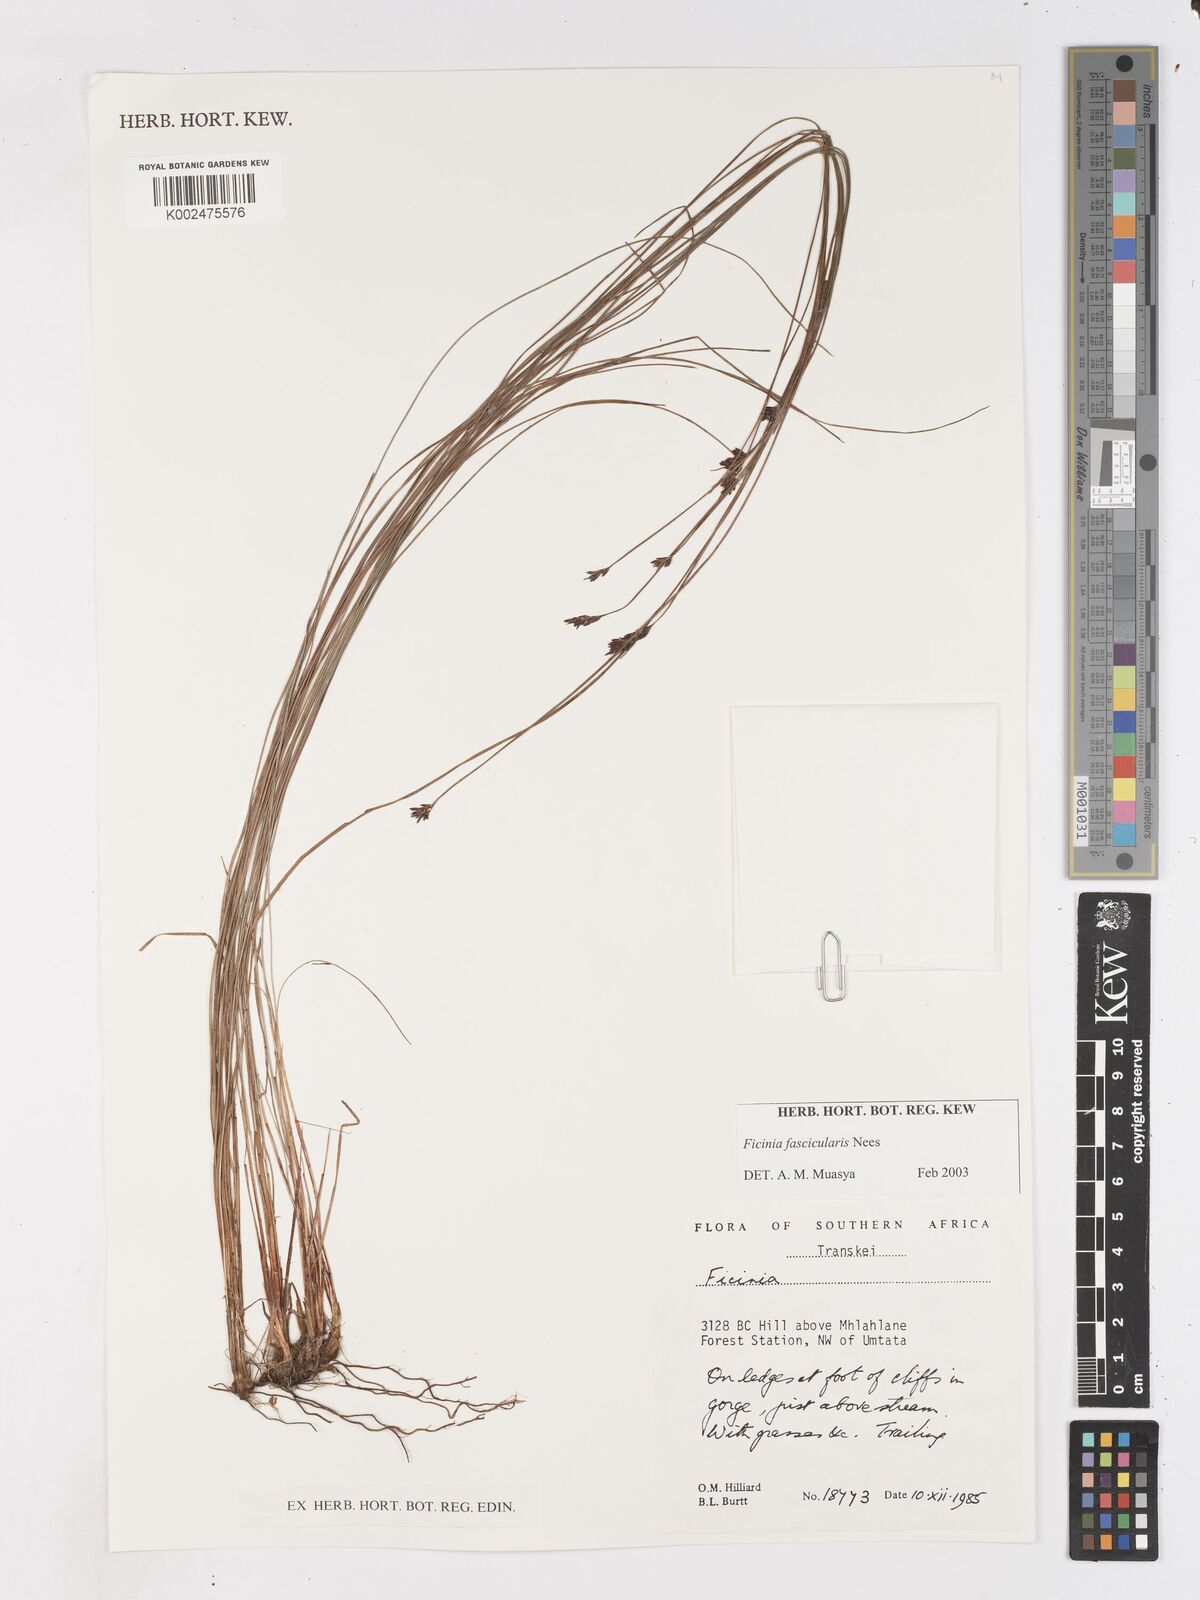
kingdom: Plantae
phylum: Tracheophyta
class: Liliopsida
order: Poales
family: Cyperaceae
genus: Ficinia
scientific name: Ficinia fascicularis
